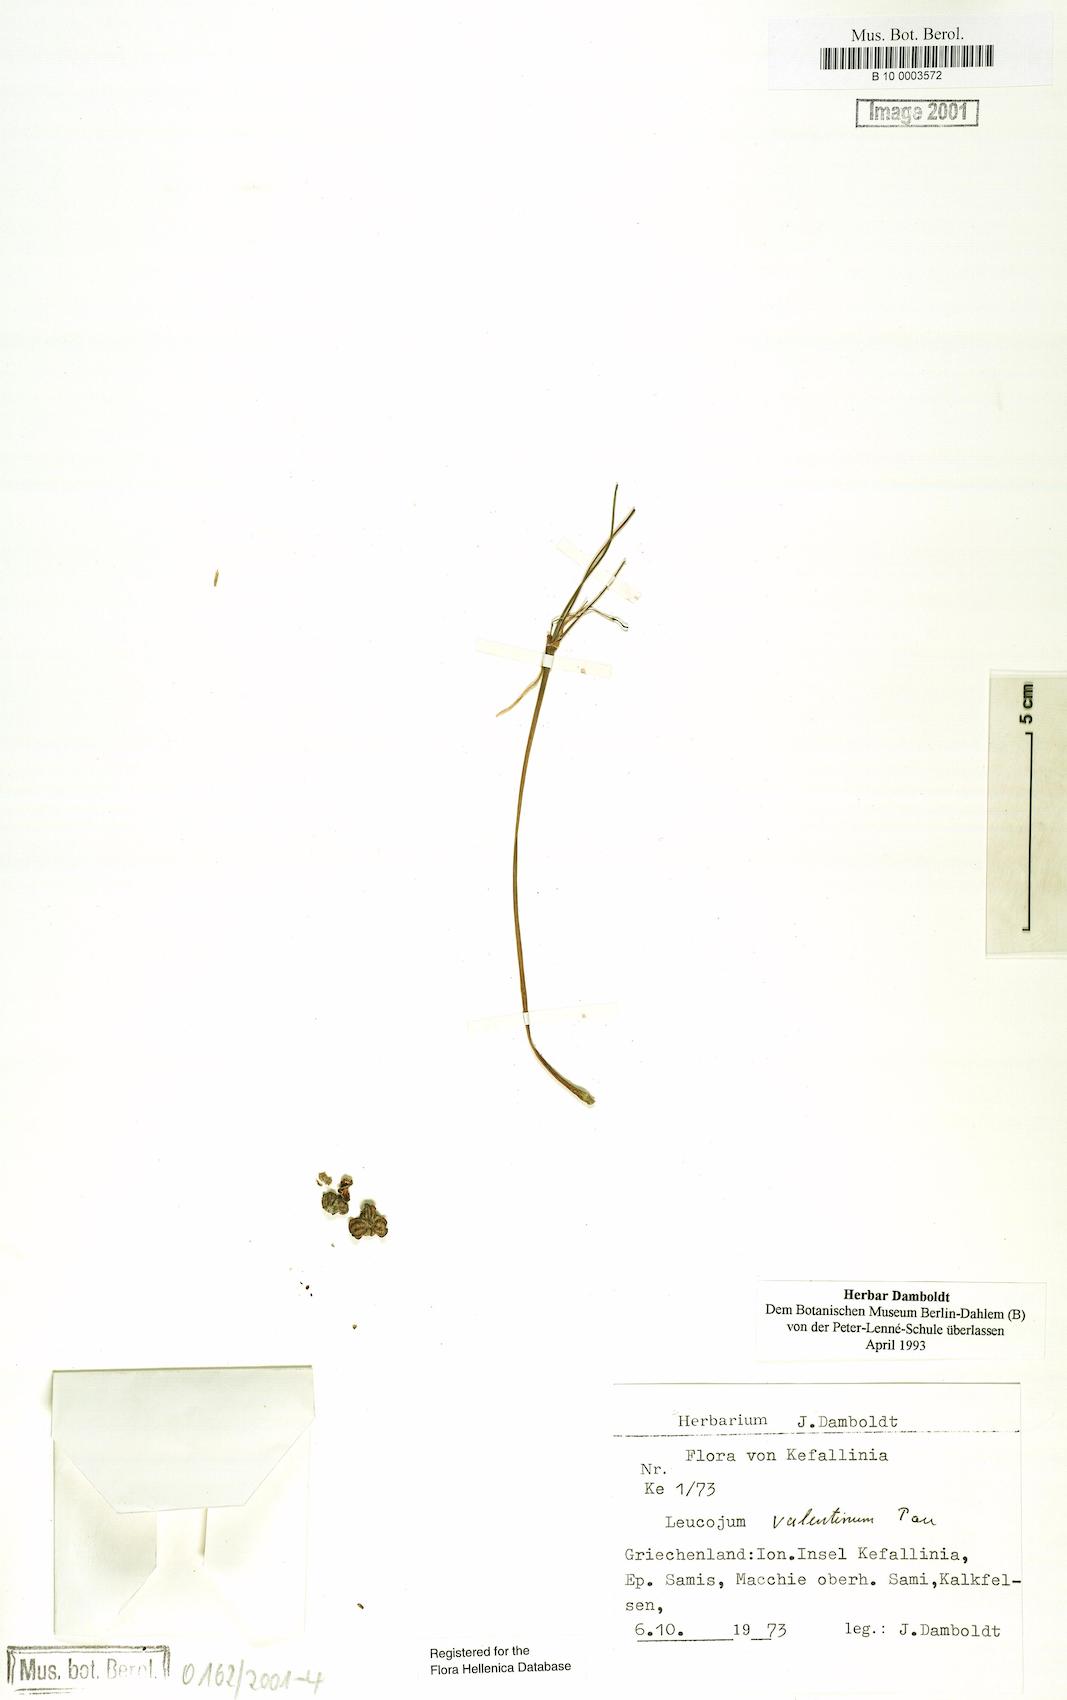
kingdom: Plantae
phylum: Tracheophyta
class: Liliopsida
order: Asparagales
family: Amaryllidaceae
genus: Acis
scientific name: Acis valentina
